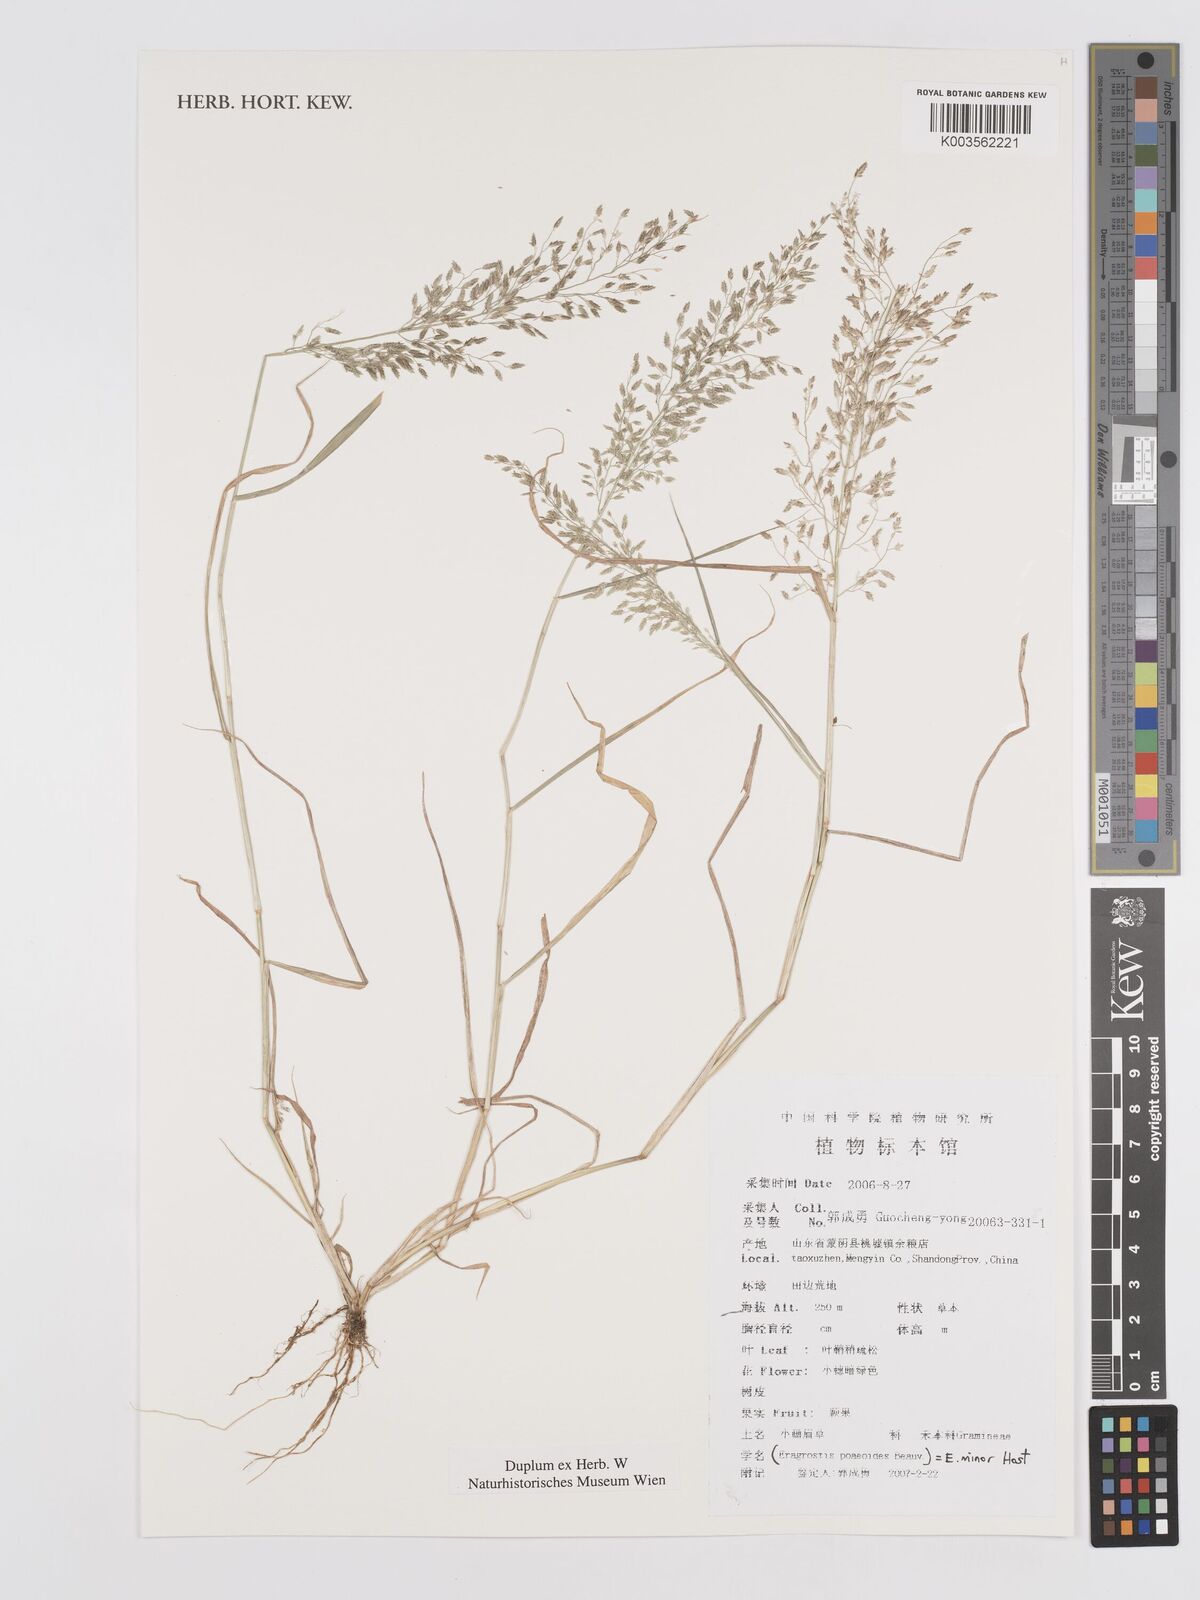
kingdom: Plantae
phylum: Tracheophyta
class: Liliopsida
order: Poales
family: Poaceae
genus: Eragrostis
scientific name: Eragrostis minor
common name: Small love-grass
